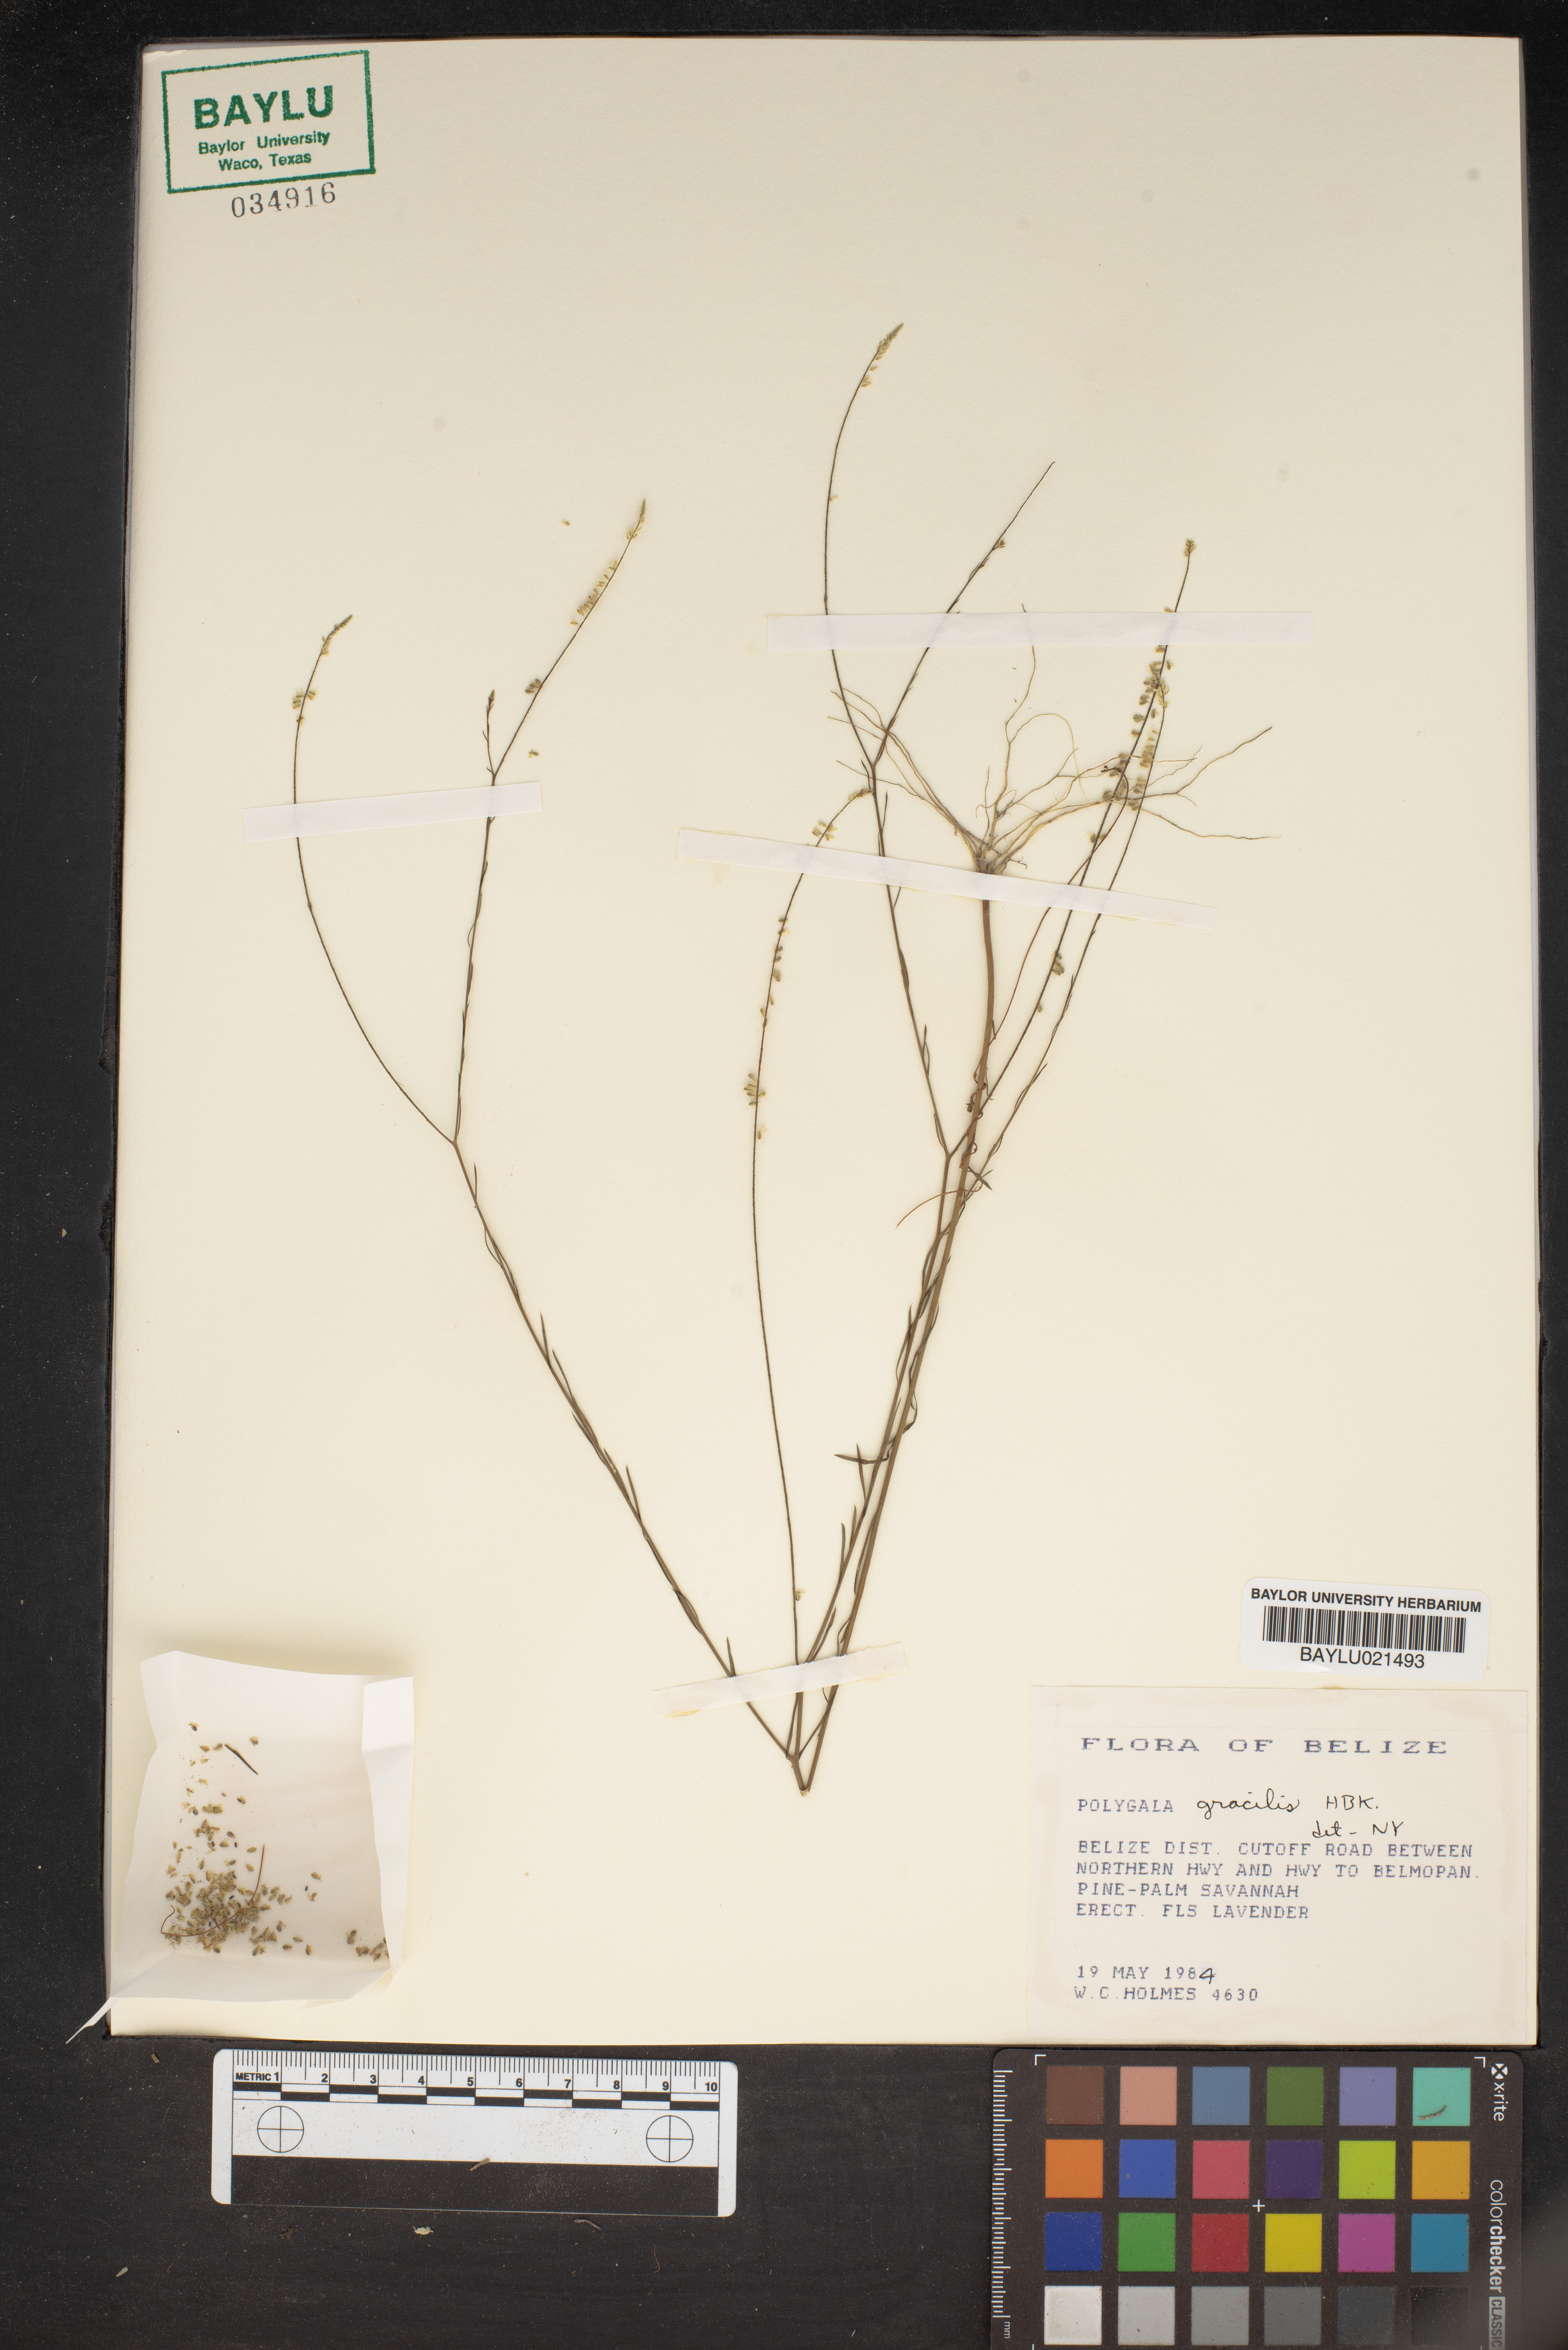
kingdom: Plantae
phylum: Tracheophyta
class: Magnoliopsida
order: Fabales
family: Polygalaceae
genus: Polygala
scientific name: Polygala gracilis
